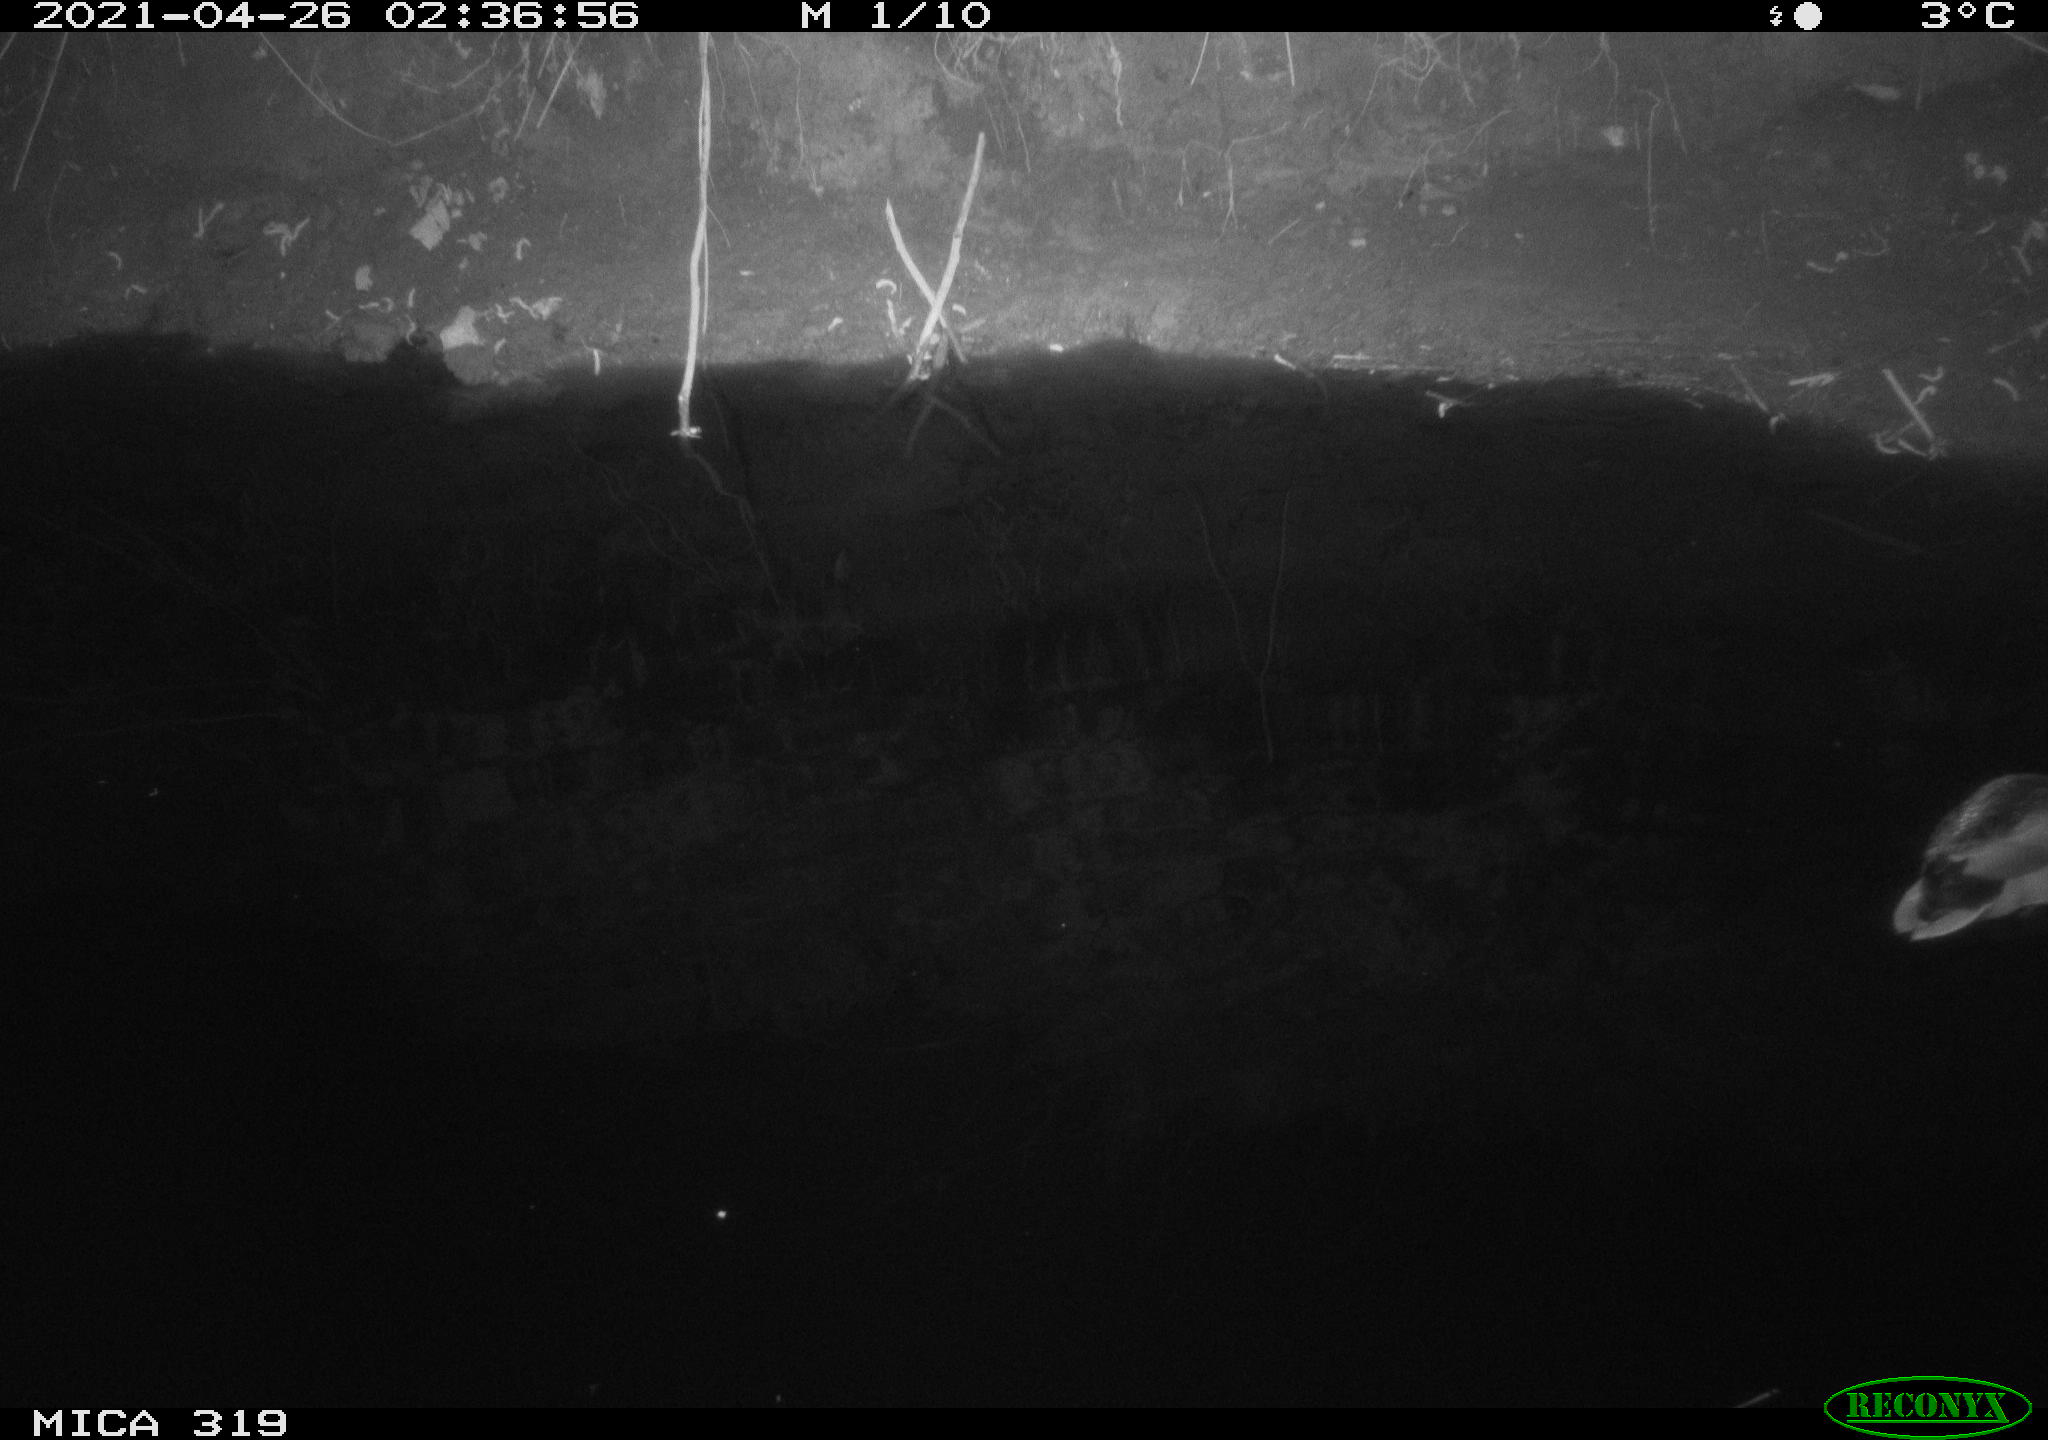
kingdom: Animalia
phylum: Chordata
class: Aves
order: Anseriformes
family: Anatidae
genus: Anas
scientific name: Anas platyrhynchos
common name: Mallard
